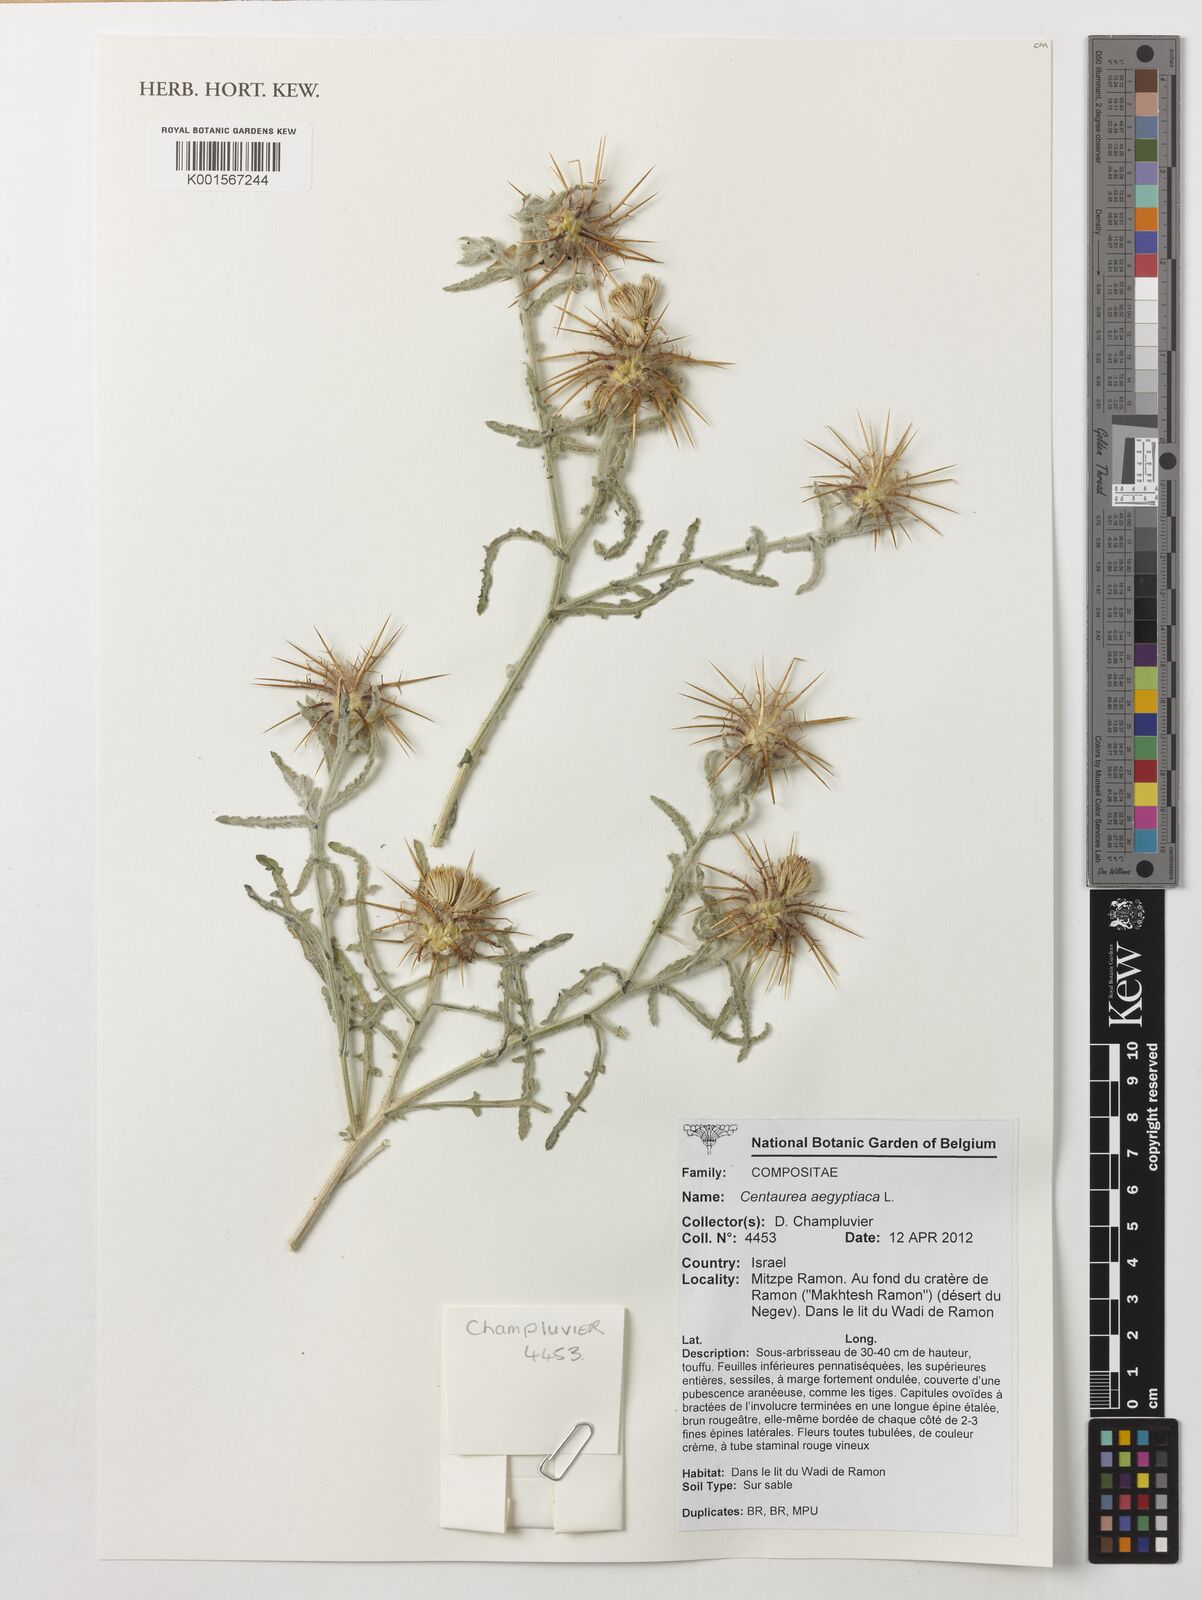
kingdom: Plantae
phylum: Tracheophyta
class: Magnoliopsida
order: Asterales
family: Asteraceae
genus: Centaurea
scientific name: Centaurea aegyptiaca
